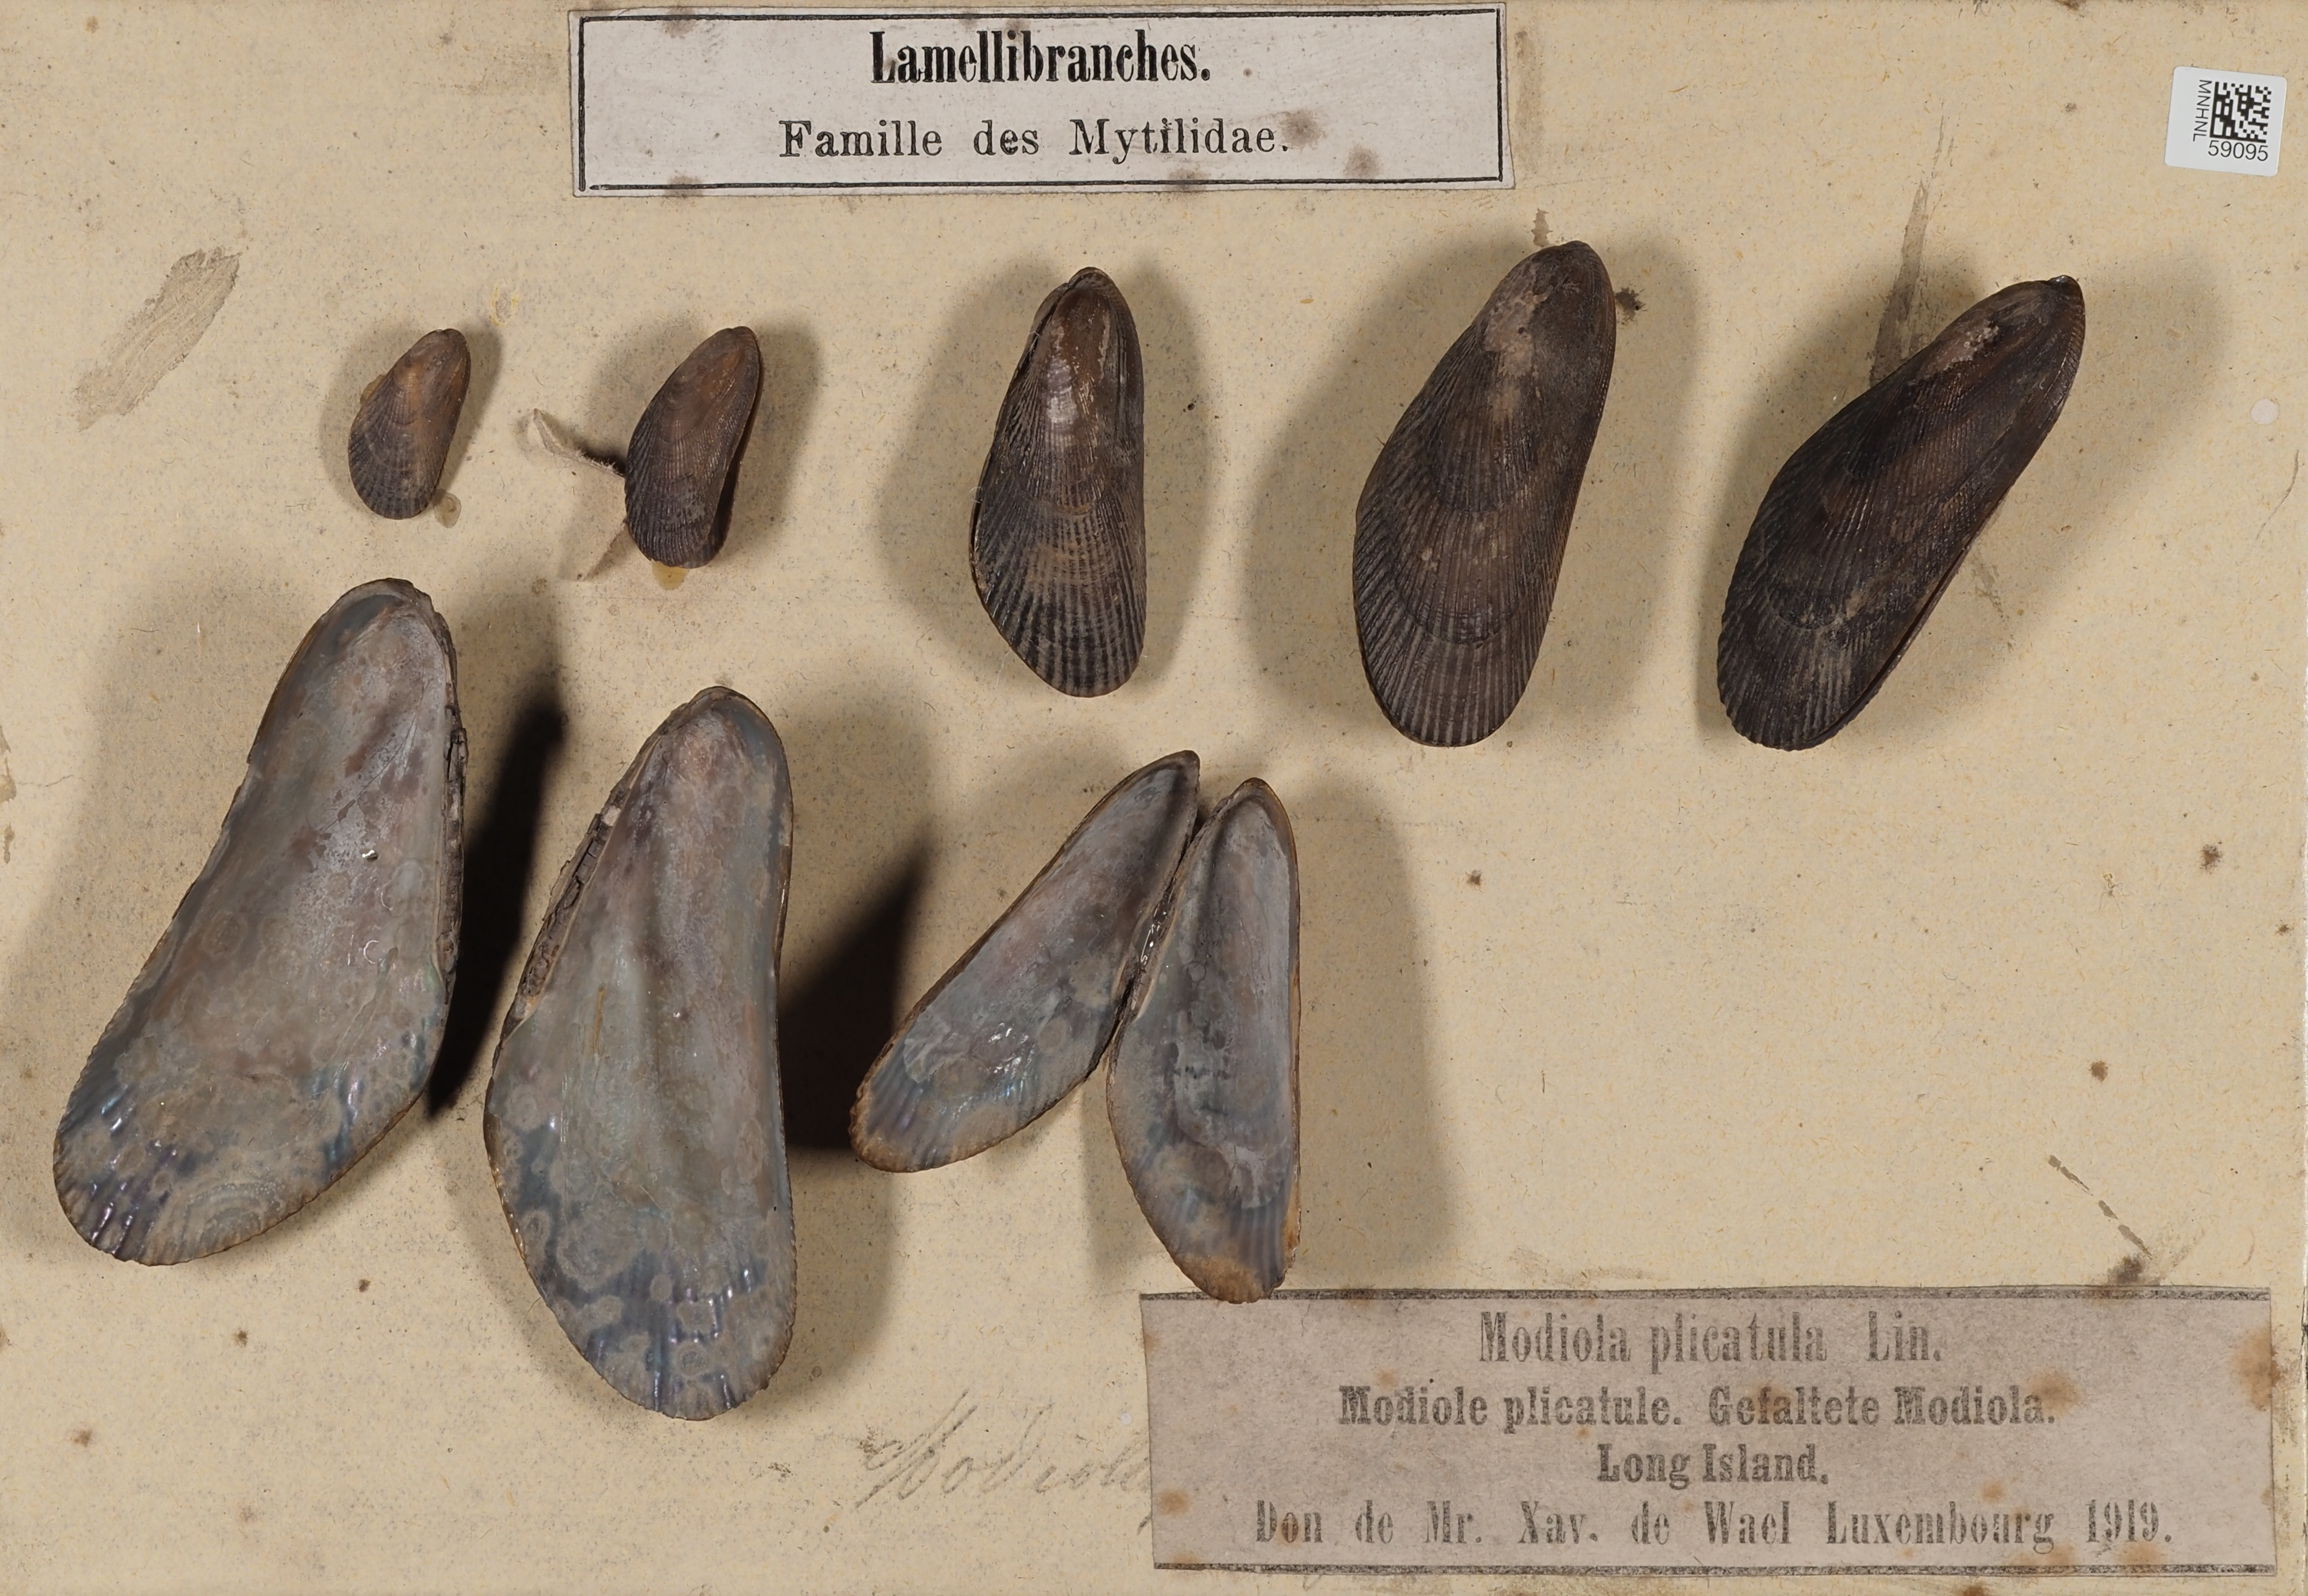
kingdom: Animalia
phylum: Mollusca
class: Bivalvia
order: Mytilida
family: Mytilidae
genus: Geukensia
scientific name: Geukensia demissa
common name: Ribbed mussel
